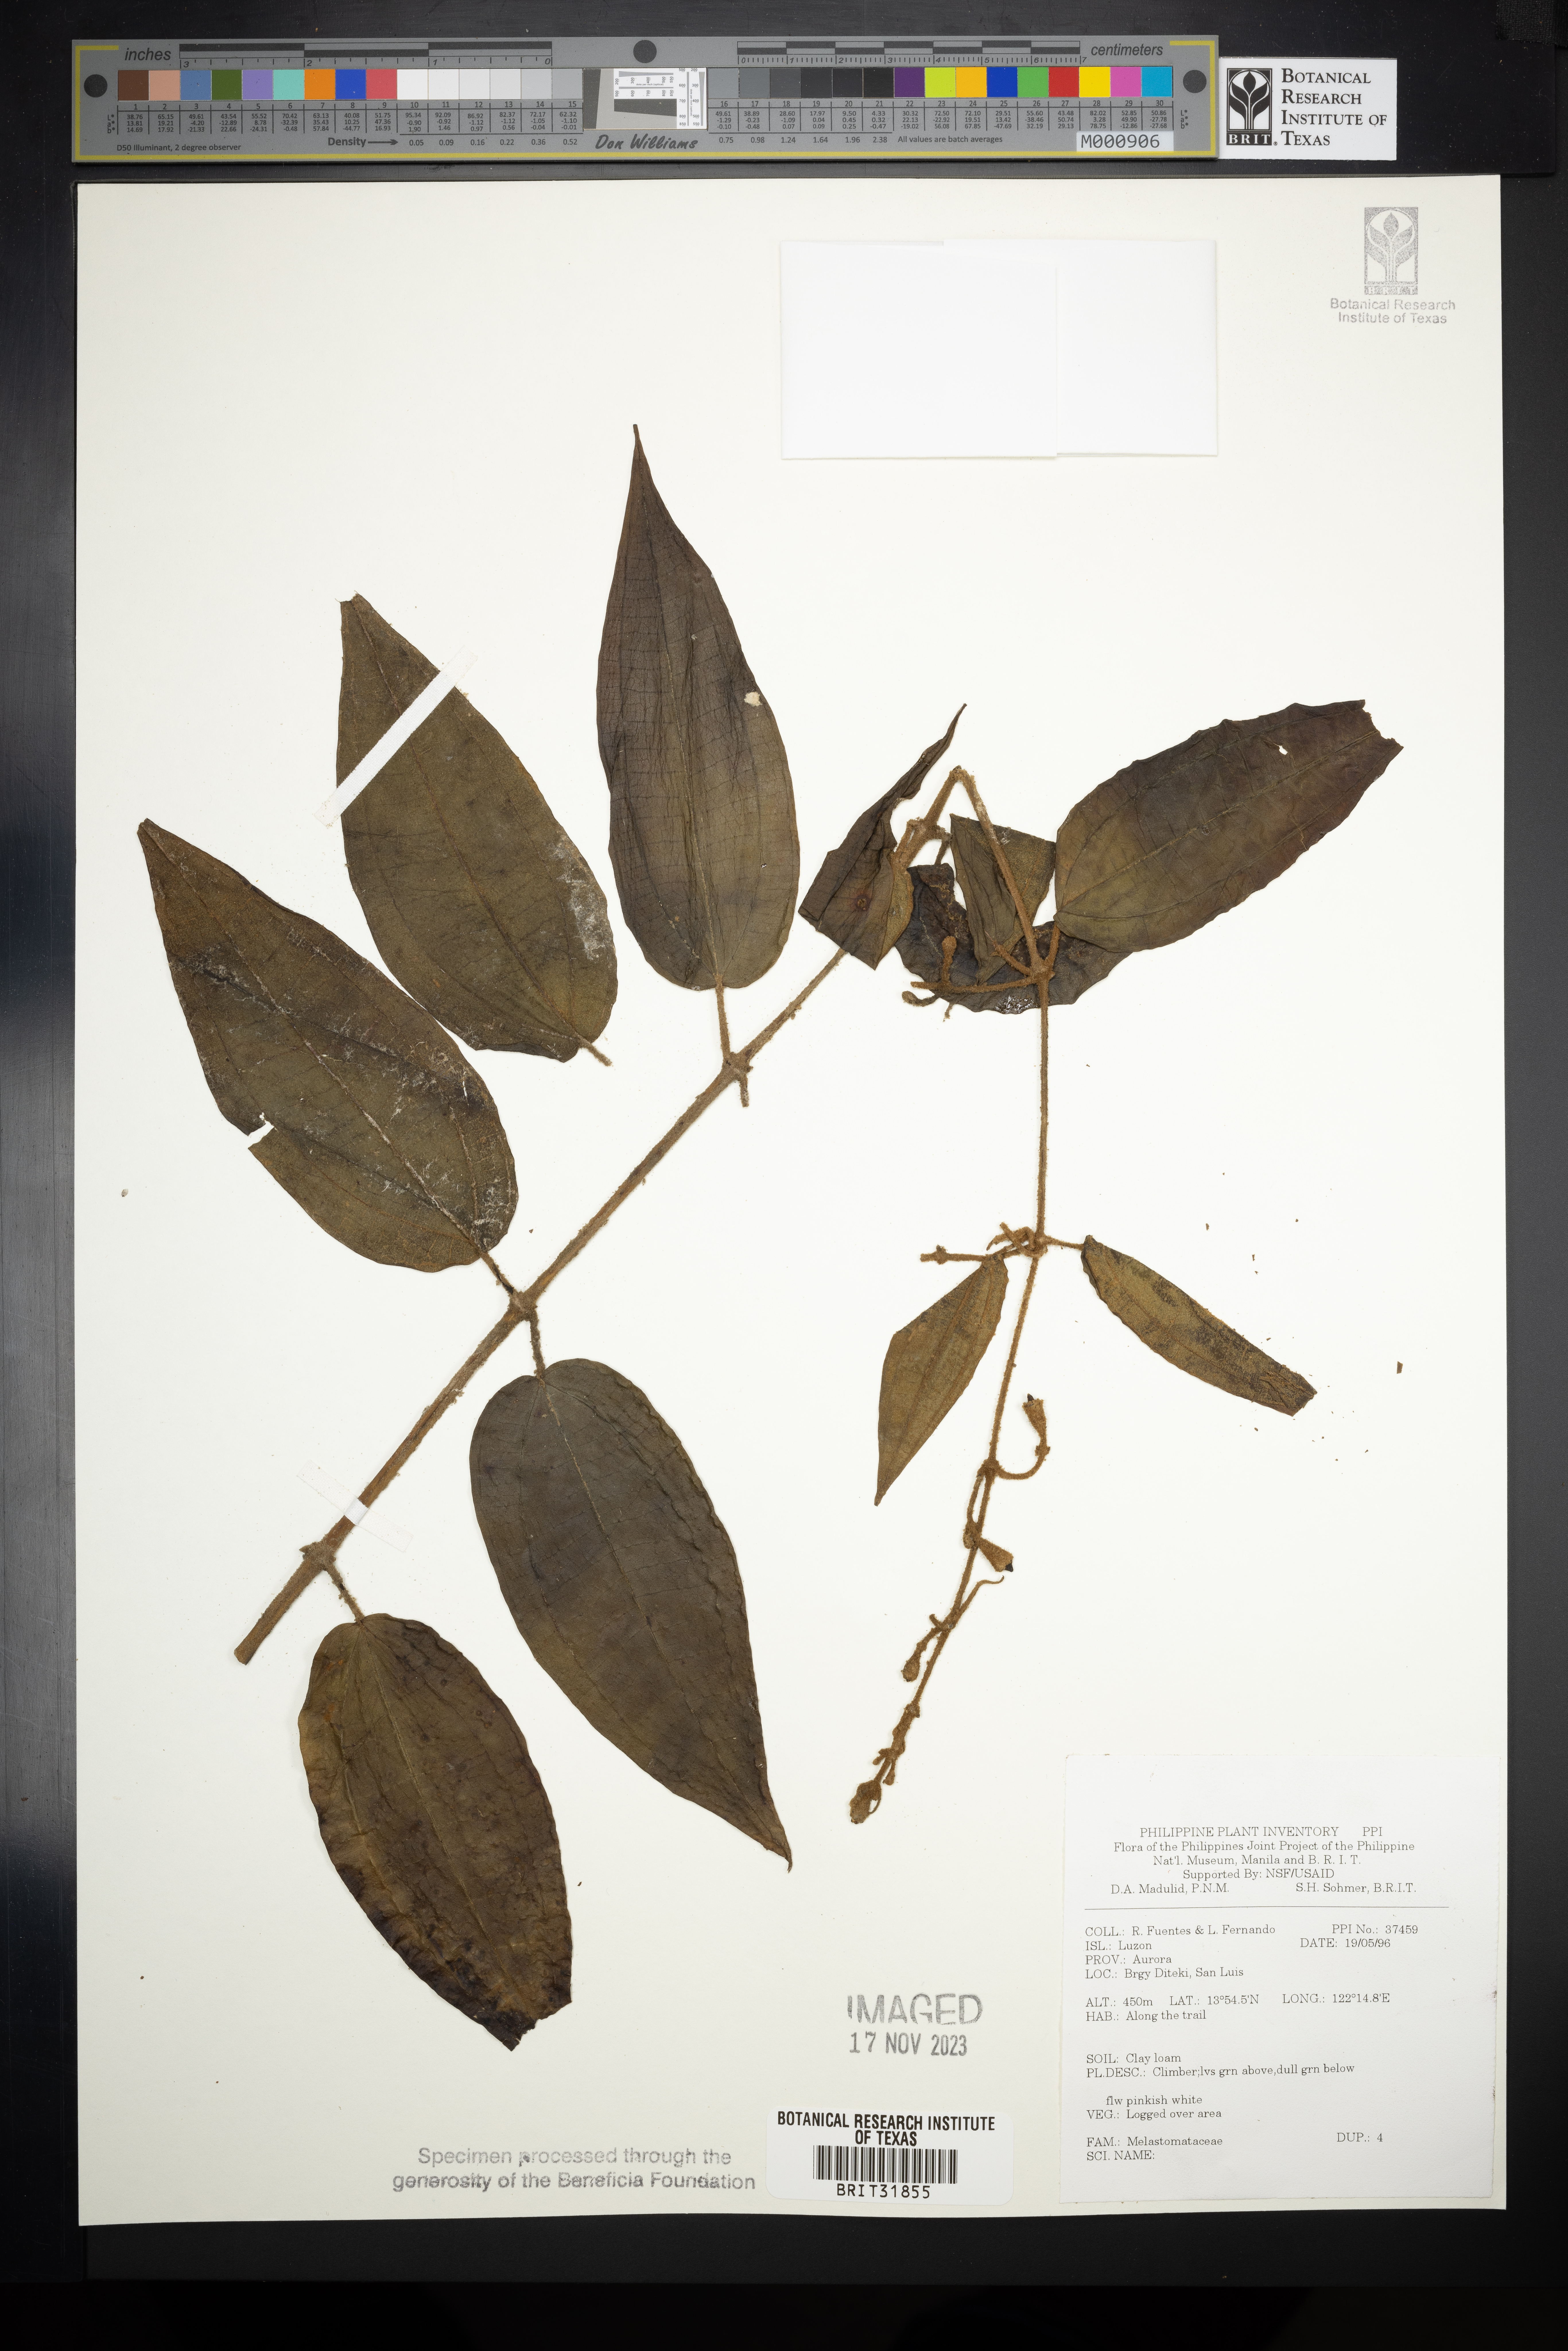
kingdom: Plantae
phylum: Tracheophyta
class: Magnoliopsida
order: Myrtales
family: Melastomataceae
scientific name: Melastomataceae
